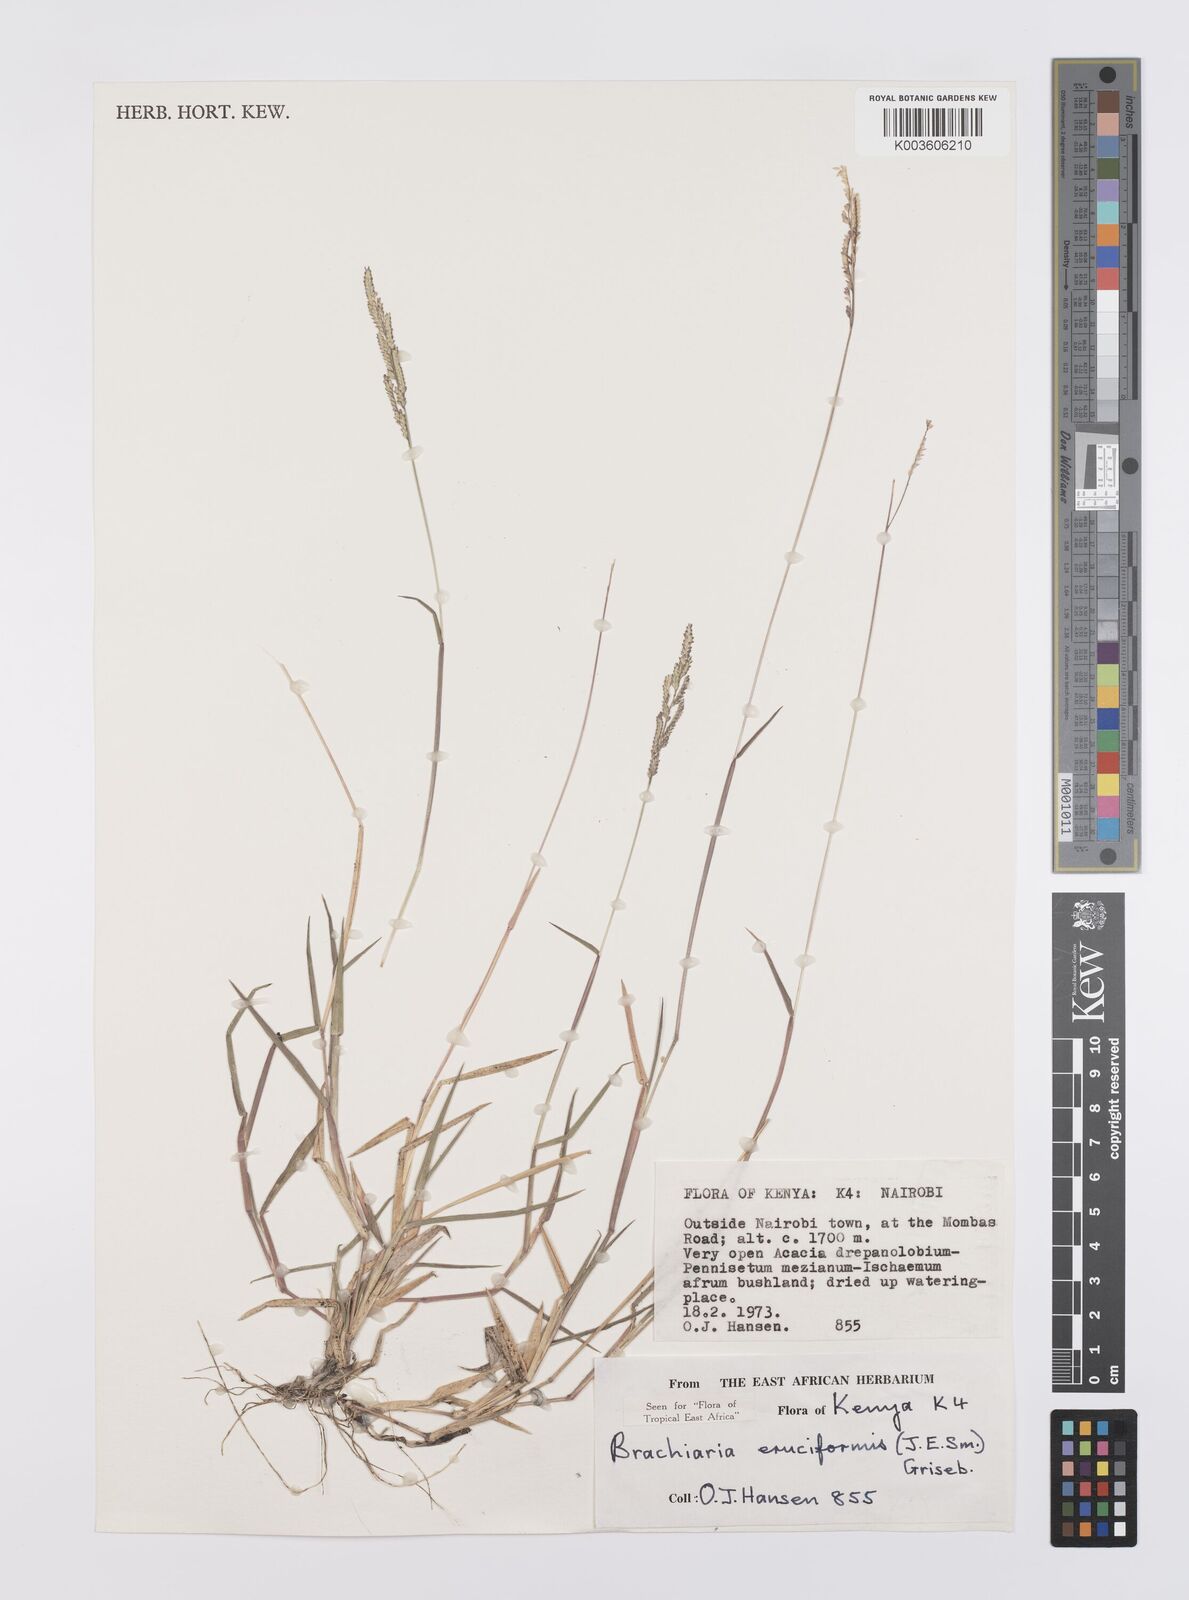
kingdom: Plantae
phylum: Tracheophyta
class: Liliopsida
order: Poales
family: Poaceae
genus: Moorochloa
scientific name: Moorochloa eruciformis
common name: Sweet signalgrass
